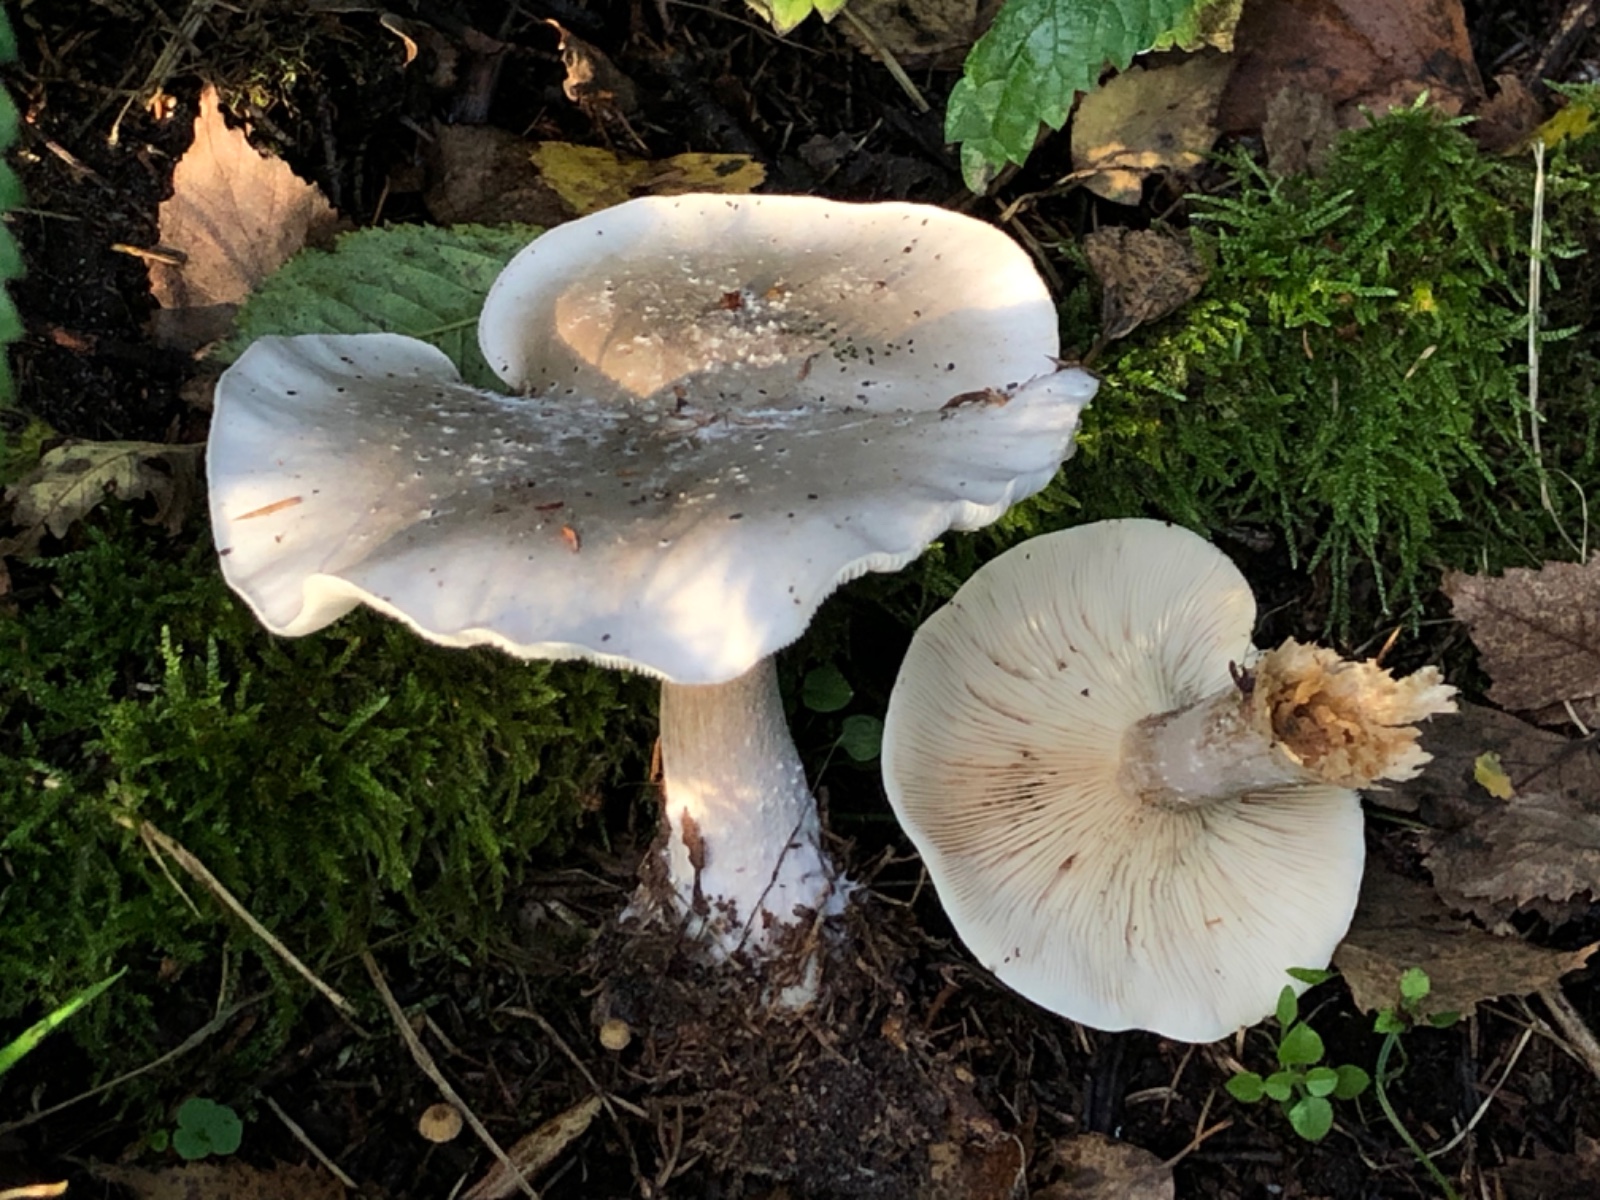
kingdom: Fungi
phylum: Basidiomycota
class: Agaricomycetes
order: Agaricales
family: Tricholomataceae
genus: Clitocybe
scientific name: Clitocybe nebularis
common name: tåge-tragthat
